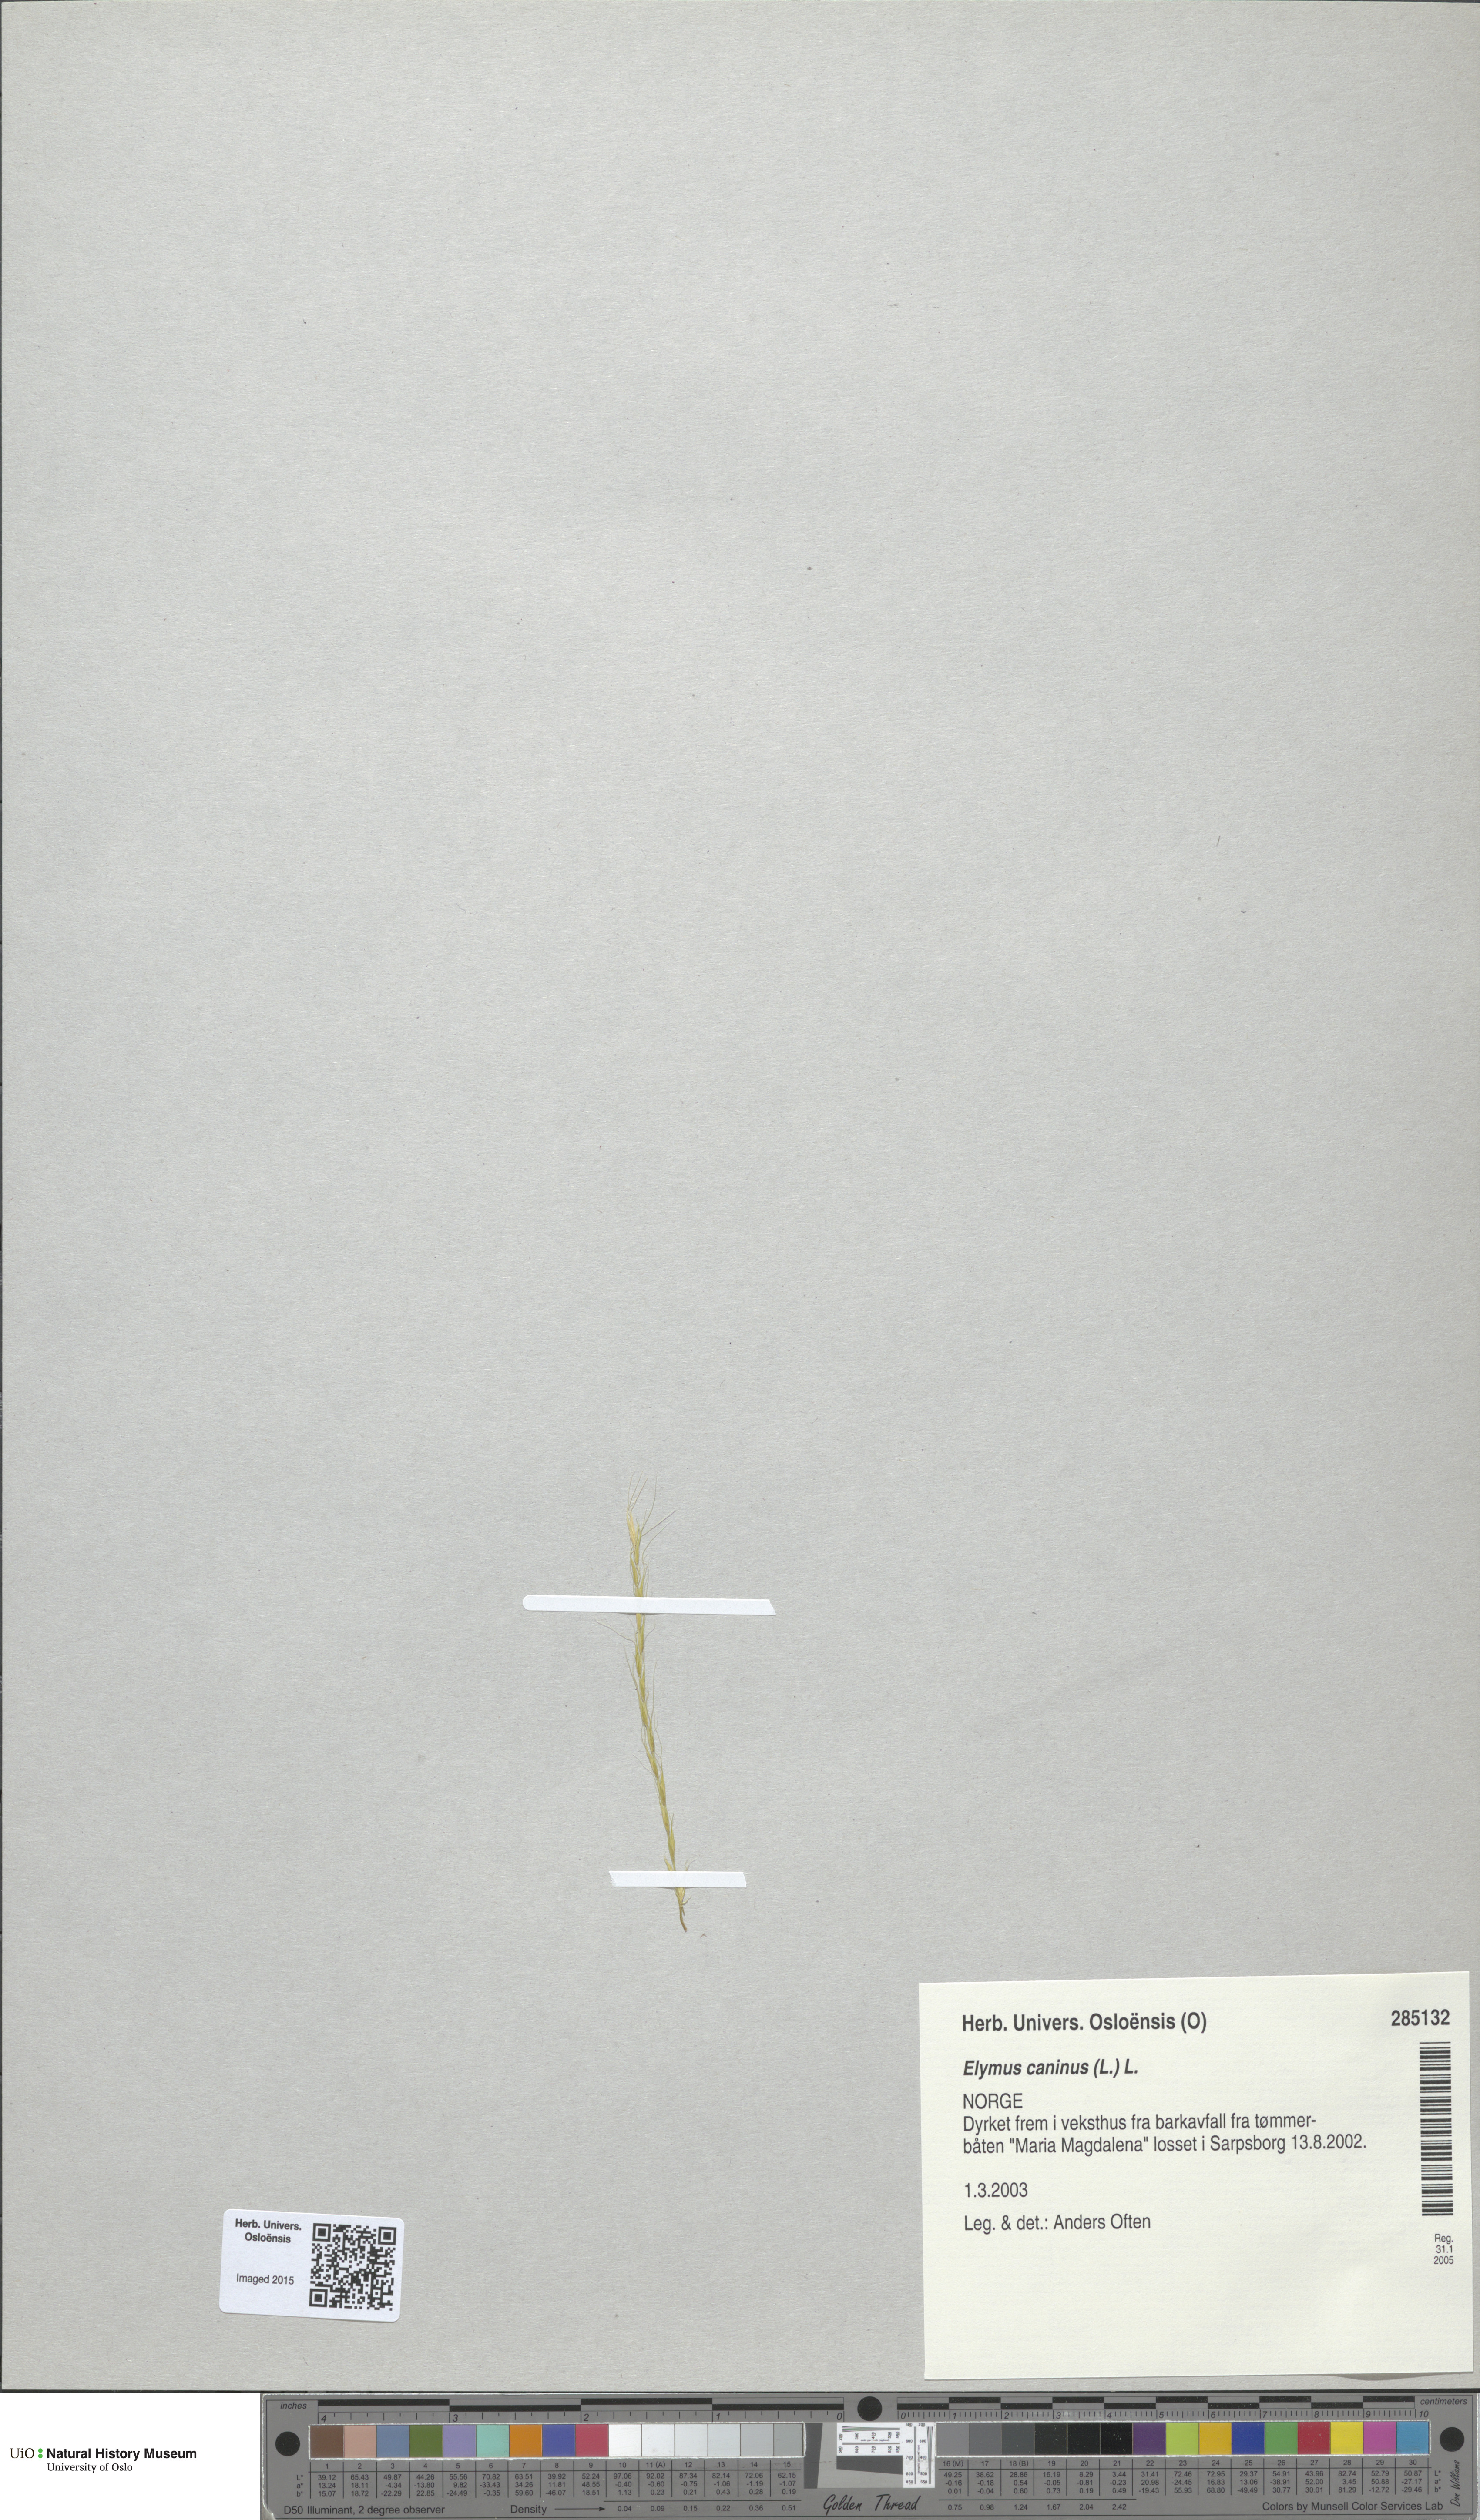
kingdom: Plantae
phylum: Tracheophyta
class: Liliopsida
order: Poales
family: Poaceae
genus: Elymus
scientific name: Elymus caninus
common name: Bearded couch
